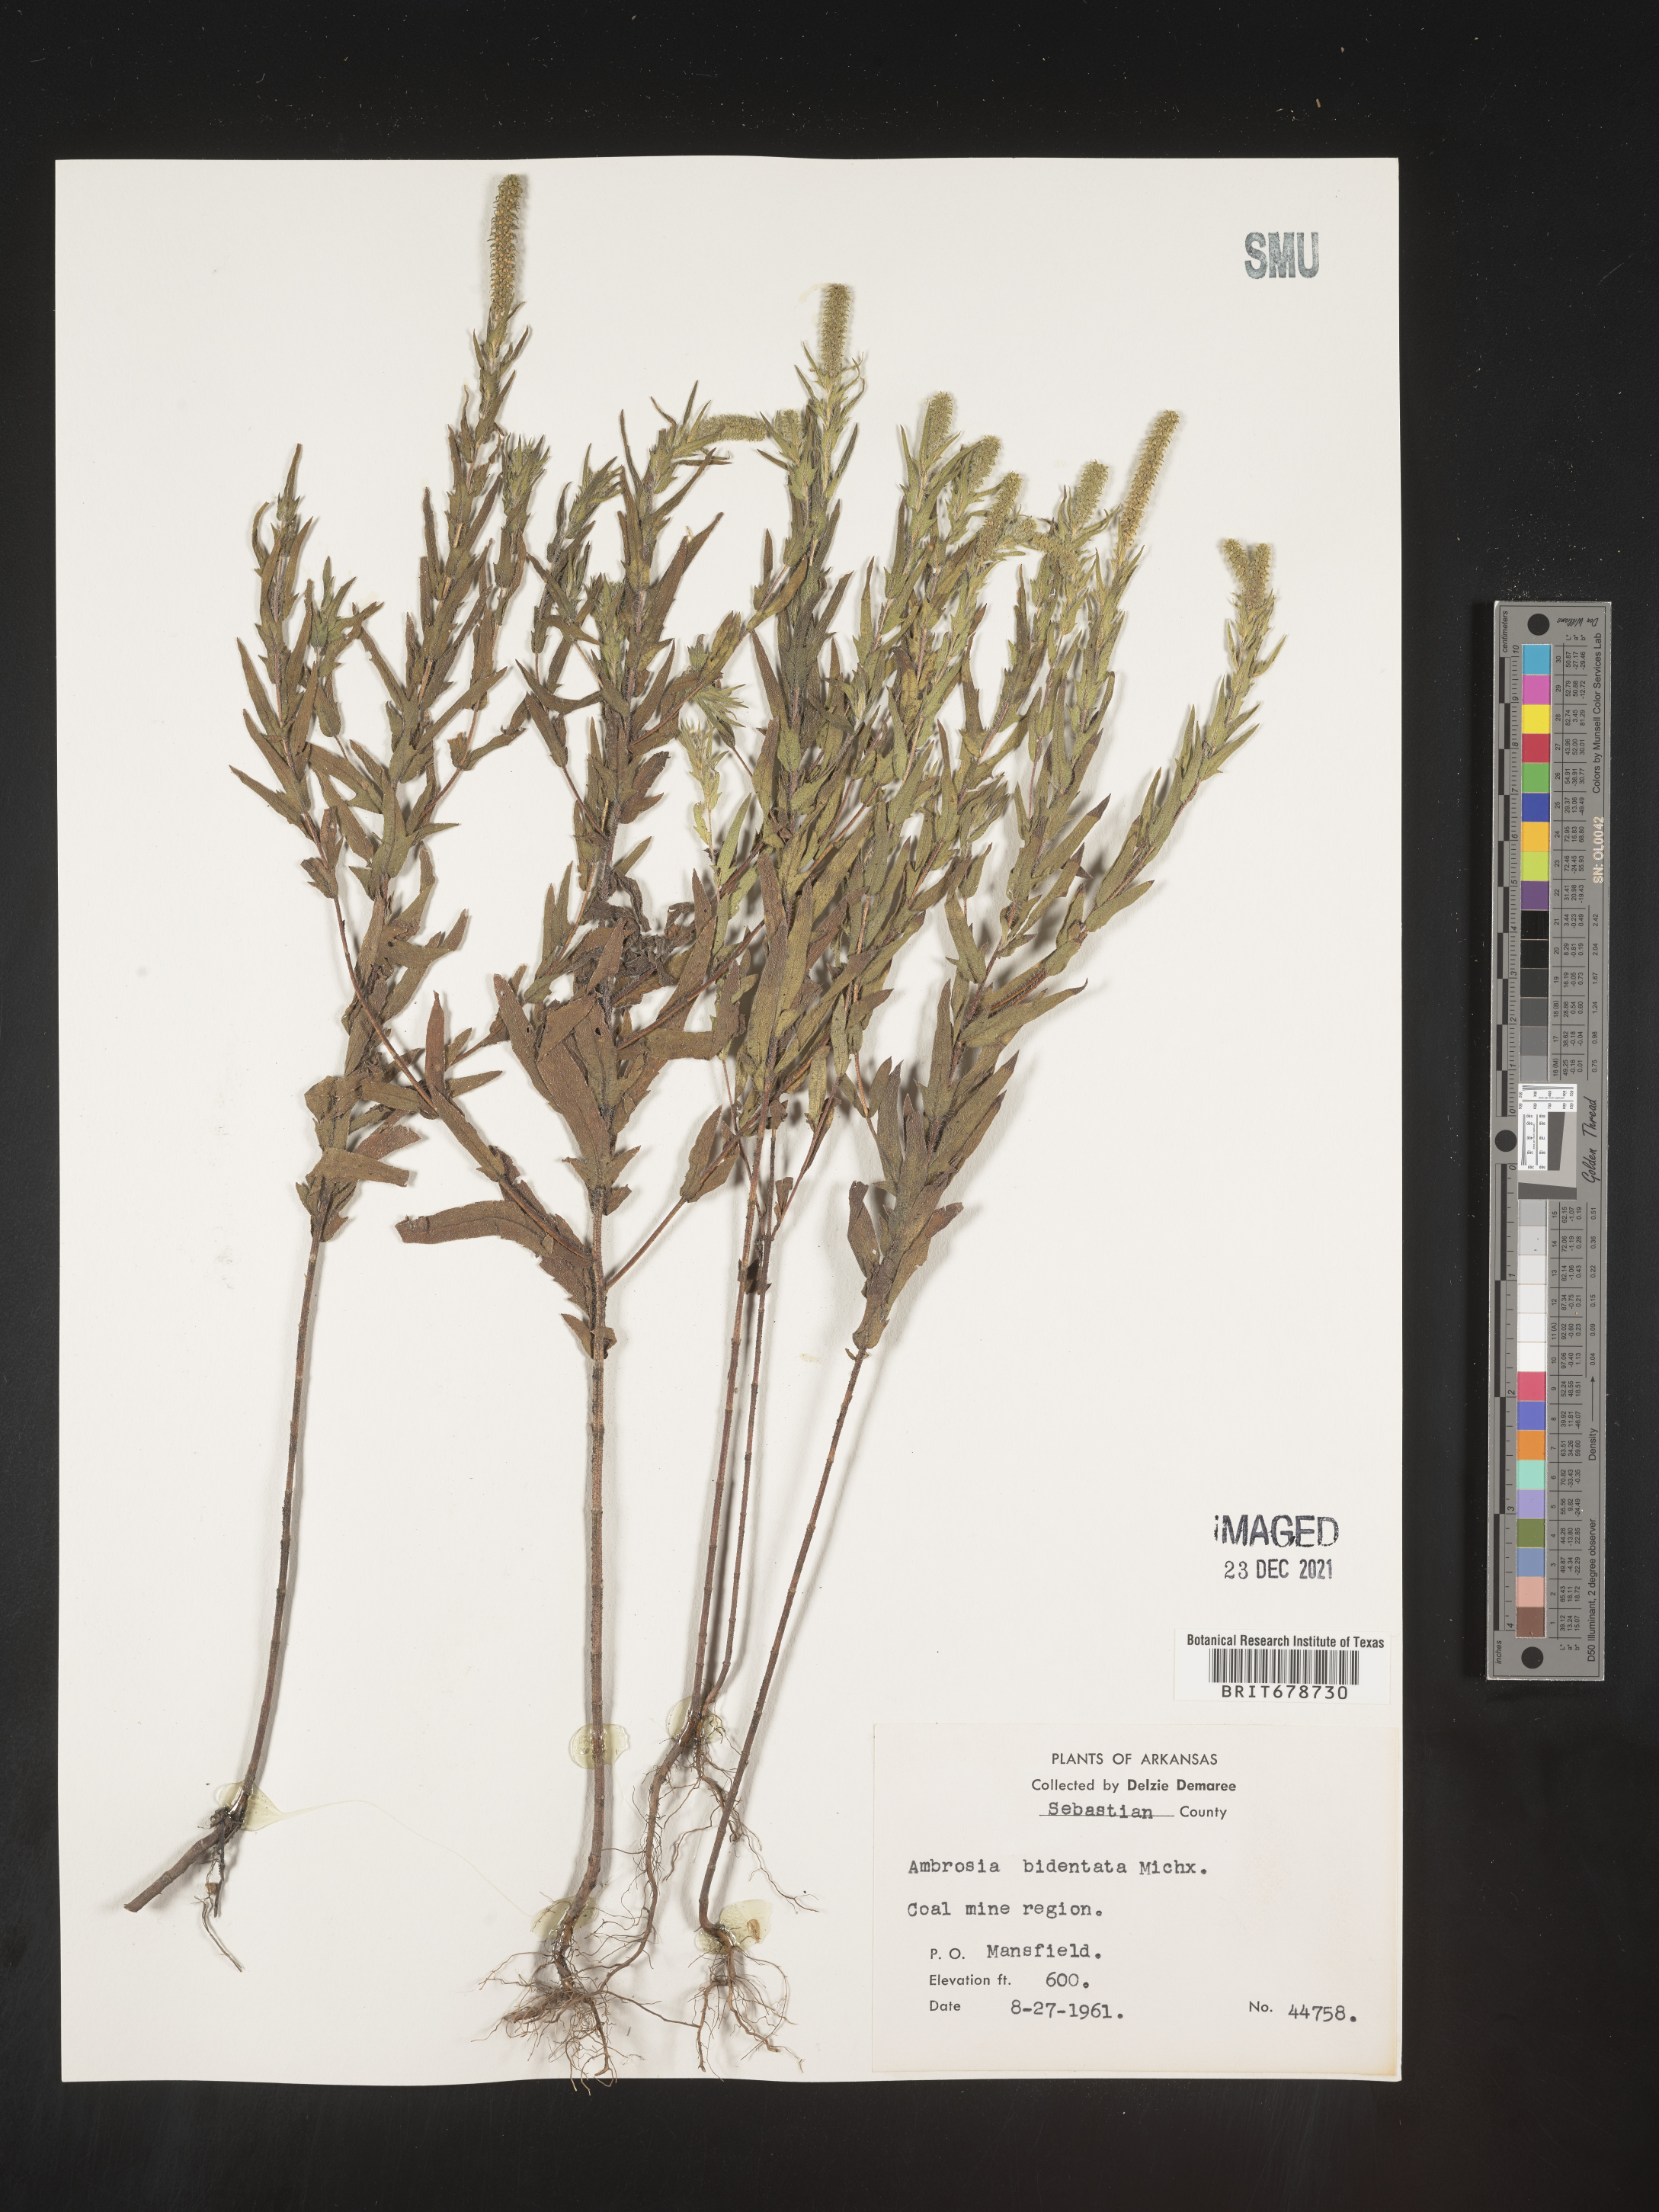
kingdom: Plantae
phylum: Tracheophyta
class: Magnoliopsida
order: Asterales
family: Asteraceae
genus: Ambrosia
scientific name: Ambrosia bidentata
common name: Southern ragweed
